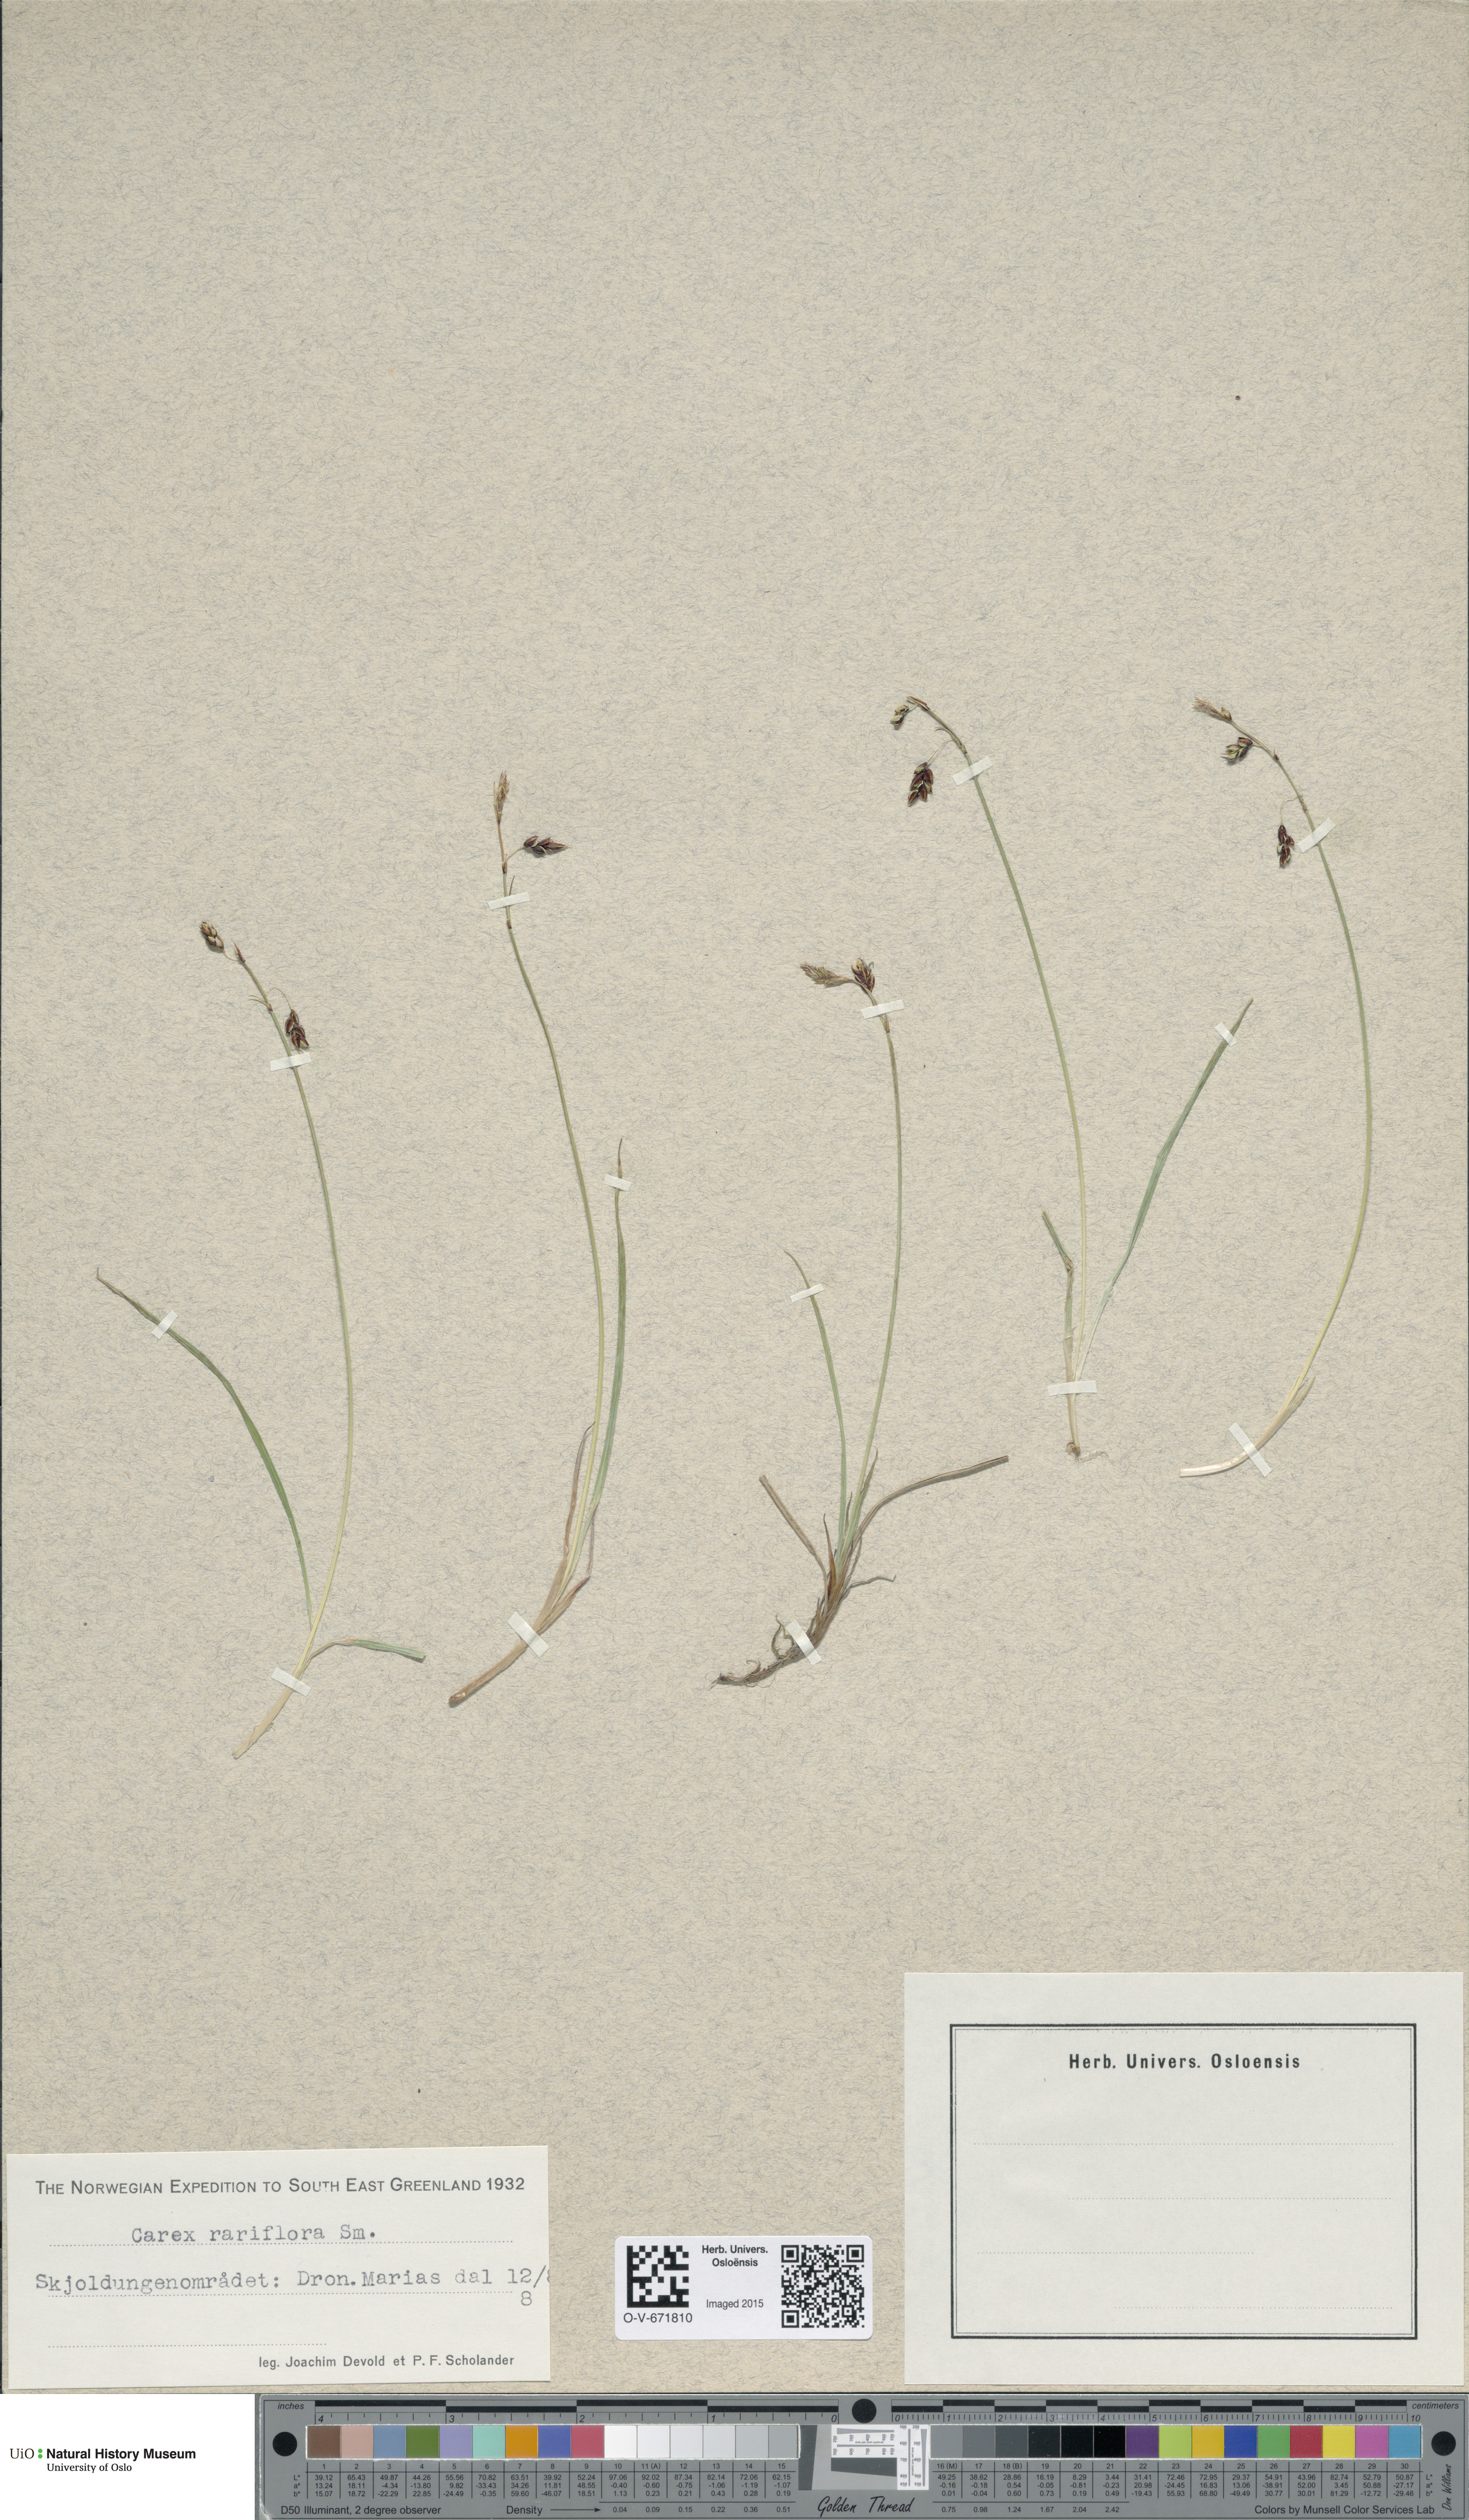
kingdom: Plantae
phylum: Tracheophyta
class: Liliopsida
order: Poales
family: Cyperaceae
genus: Carex
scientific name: Carex rariflora
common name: Loose-flowered alpine sedge
